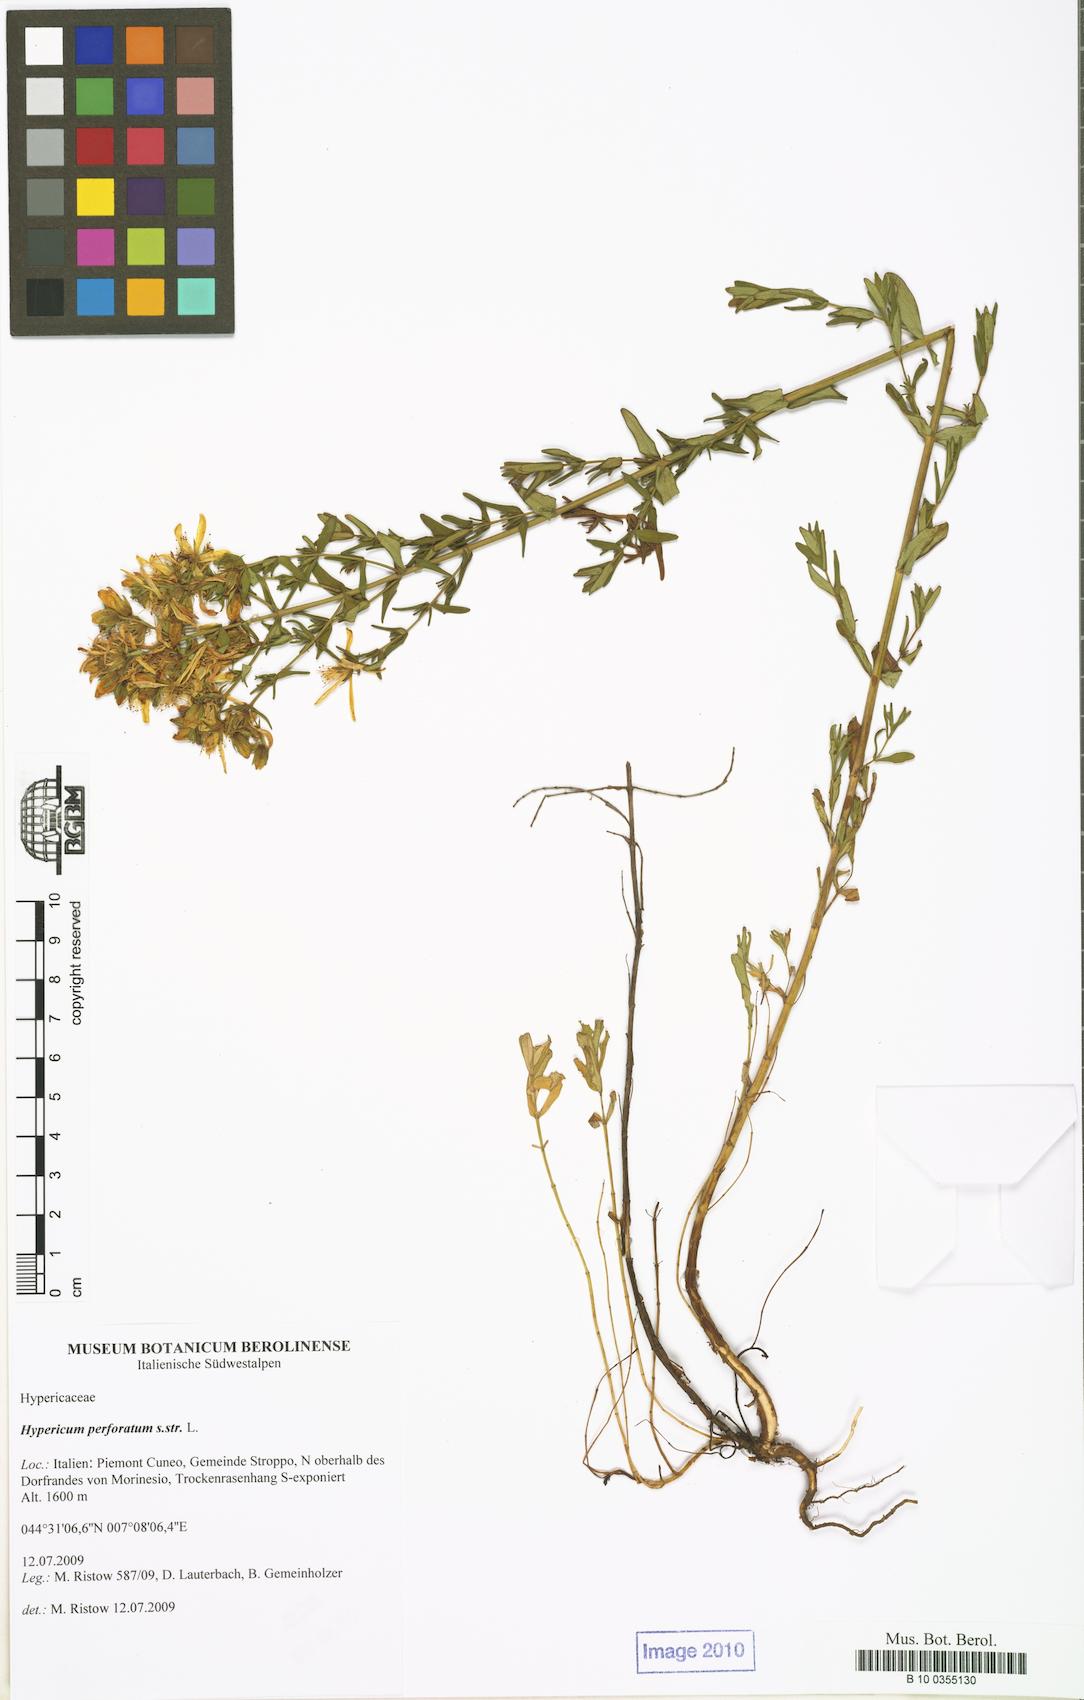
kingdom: Plantae
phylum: Tracheophyta
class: Magnoliopsida
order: Malpighiales
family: Clusiaceae
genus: Hipericum
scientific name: Hipericum
